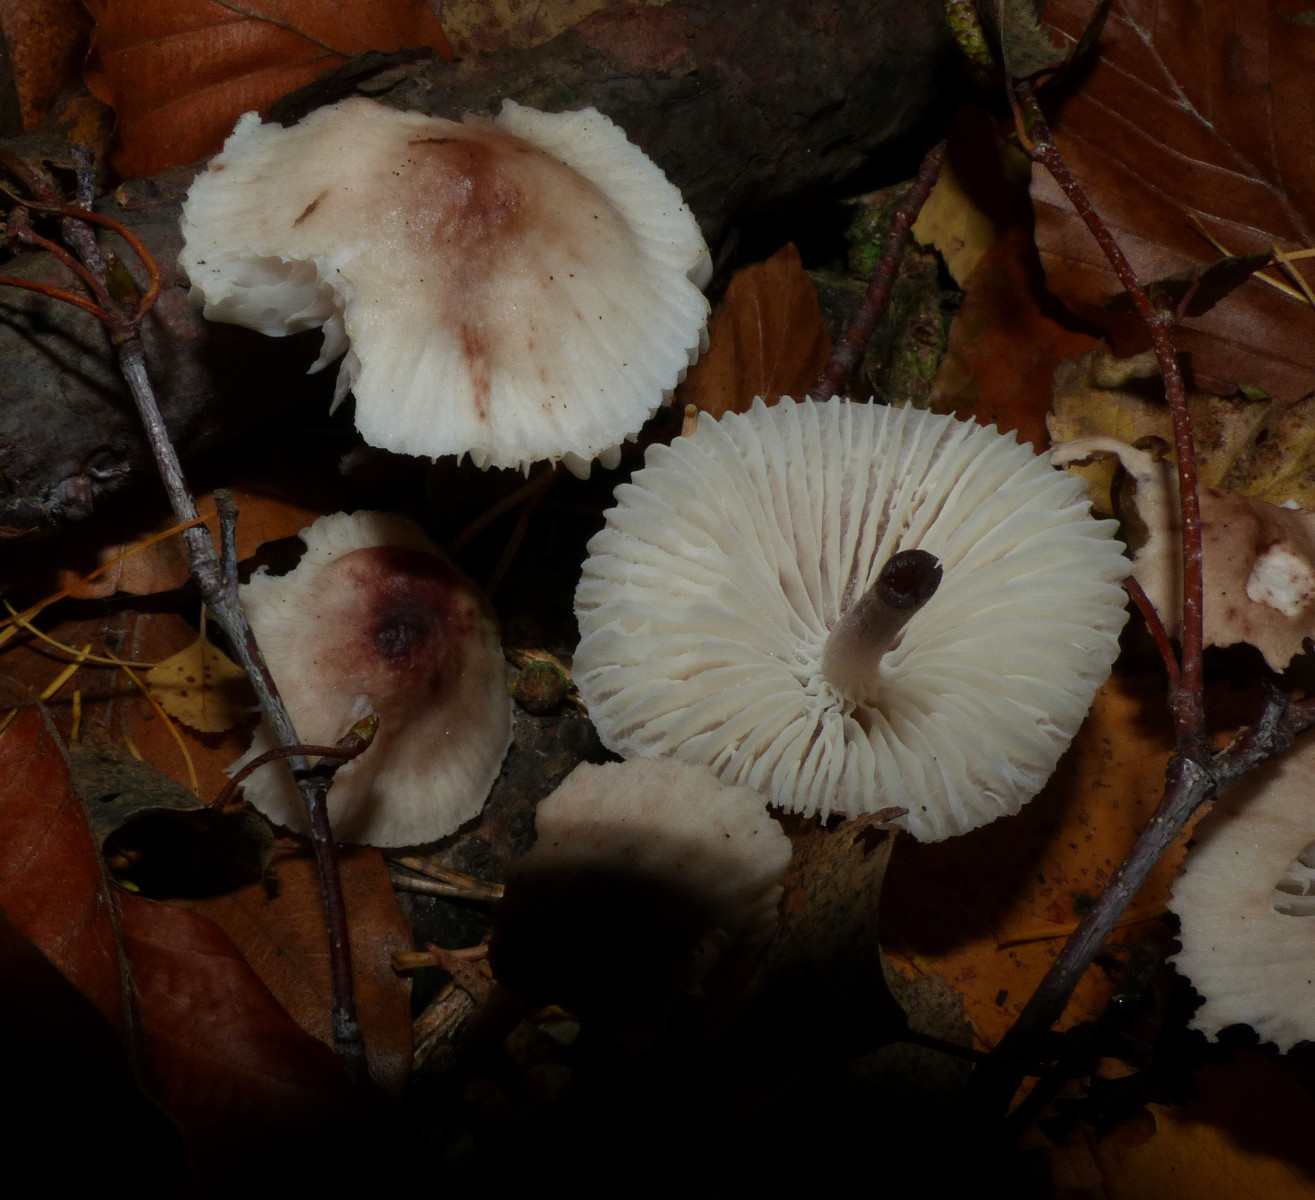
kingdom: Fungi
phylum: Basidiomycota
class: Agaricomycetes
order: Agaricales
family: Mycenaceae
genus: Mycena
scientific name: Mycena zephirus
